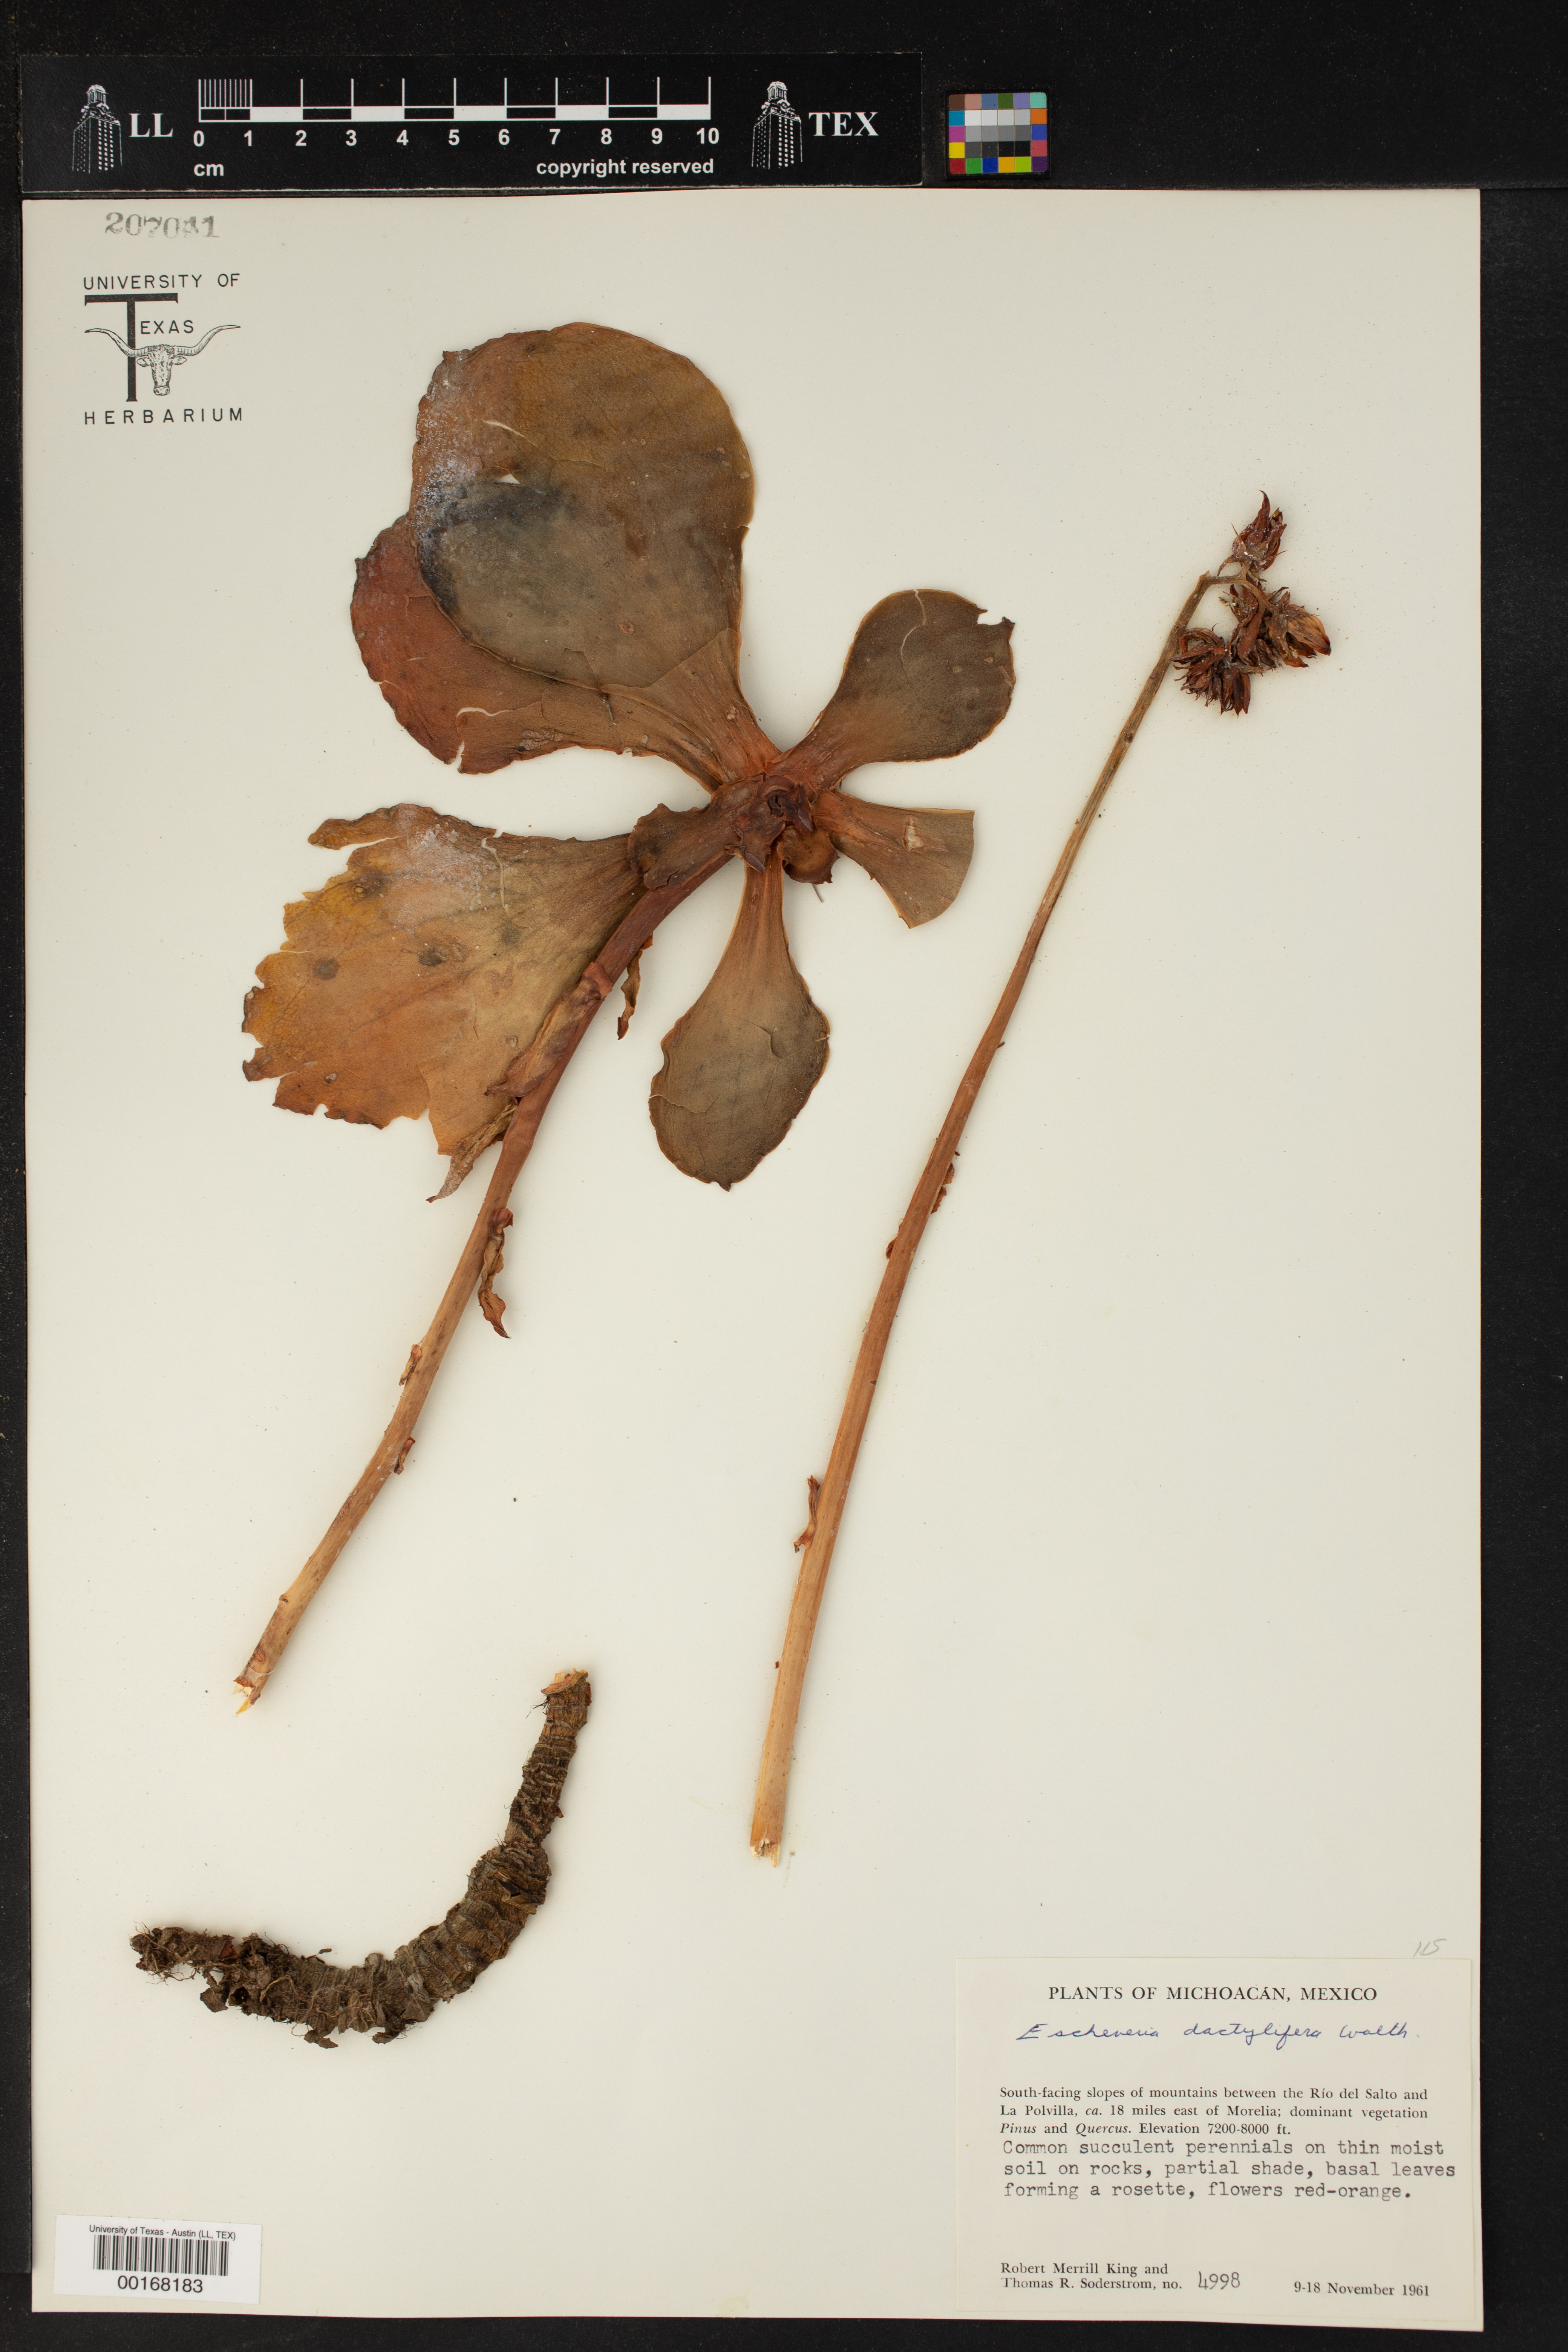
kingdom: Plantae
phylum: Tracheophyta
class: Magnoliopsida
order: Saxifragales
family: Crassulaceae
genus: Echeveria
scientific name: Echeveria dactylifera
